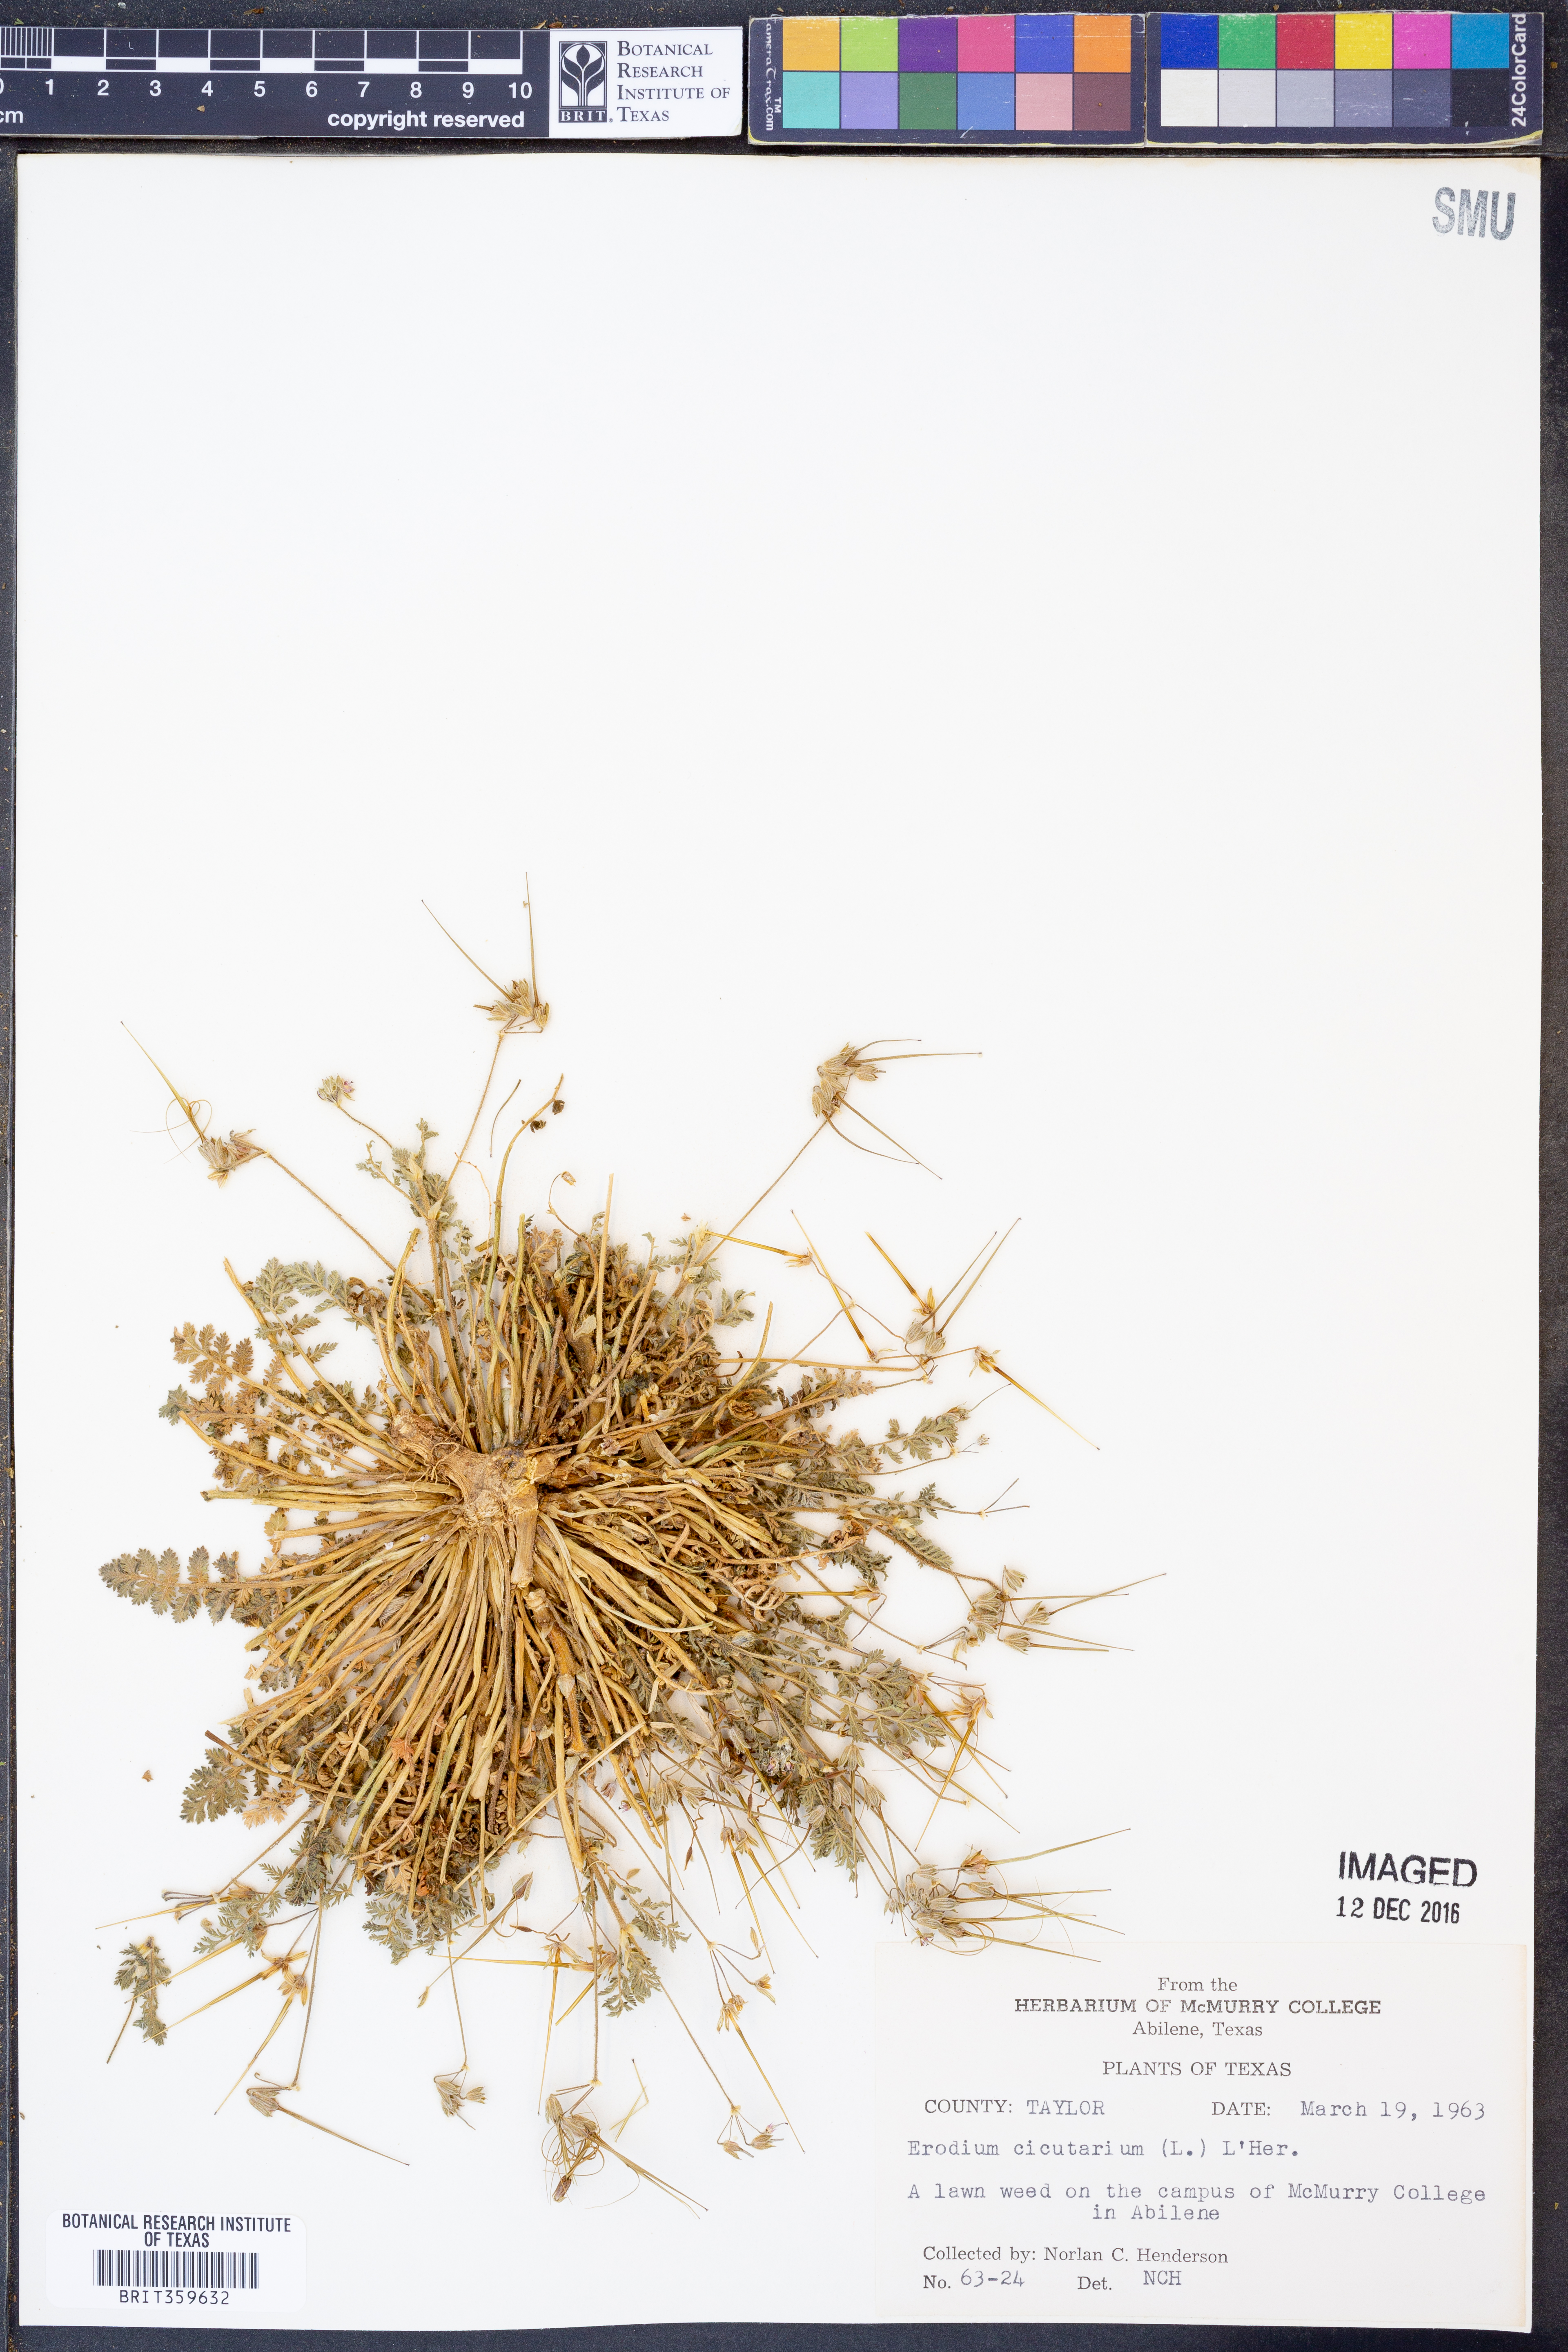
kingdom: Plantae
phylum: Tracheophyta
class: Magnoliopsida
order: Geraniales
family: Geraniaceae
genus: Erodium
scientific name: Erodium cicutarium
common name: Common stork's-bill
